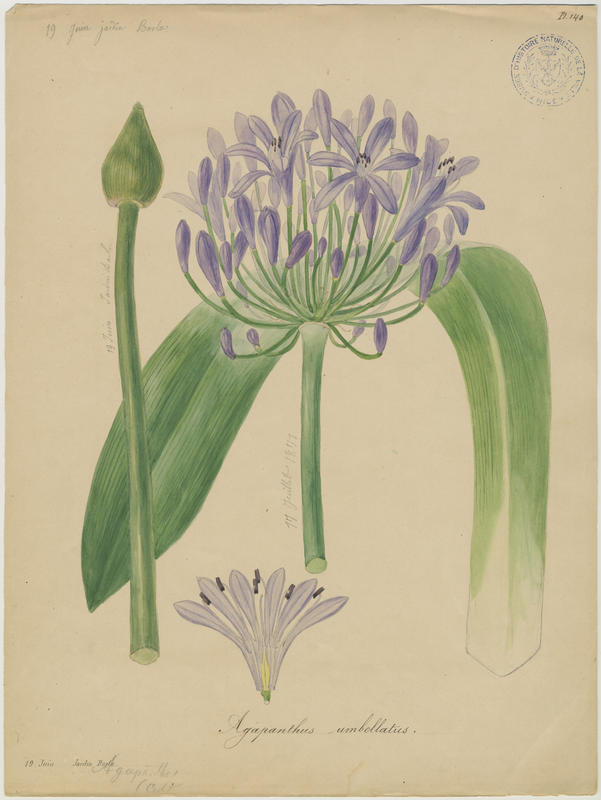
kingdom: Plantae
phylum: Tracheophyta
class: Liliopsida
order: Asparagales
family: Amaryllidaceae
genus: Agapanthus
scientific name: Agapanthus africanus
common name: Lily-of-the-nile
